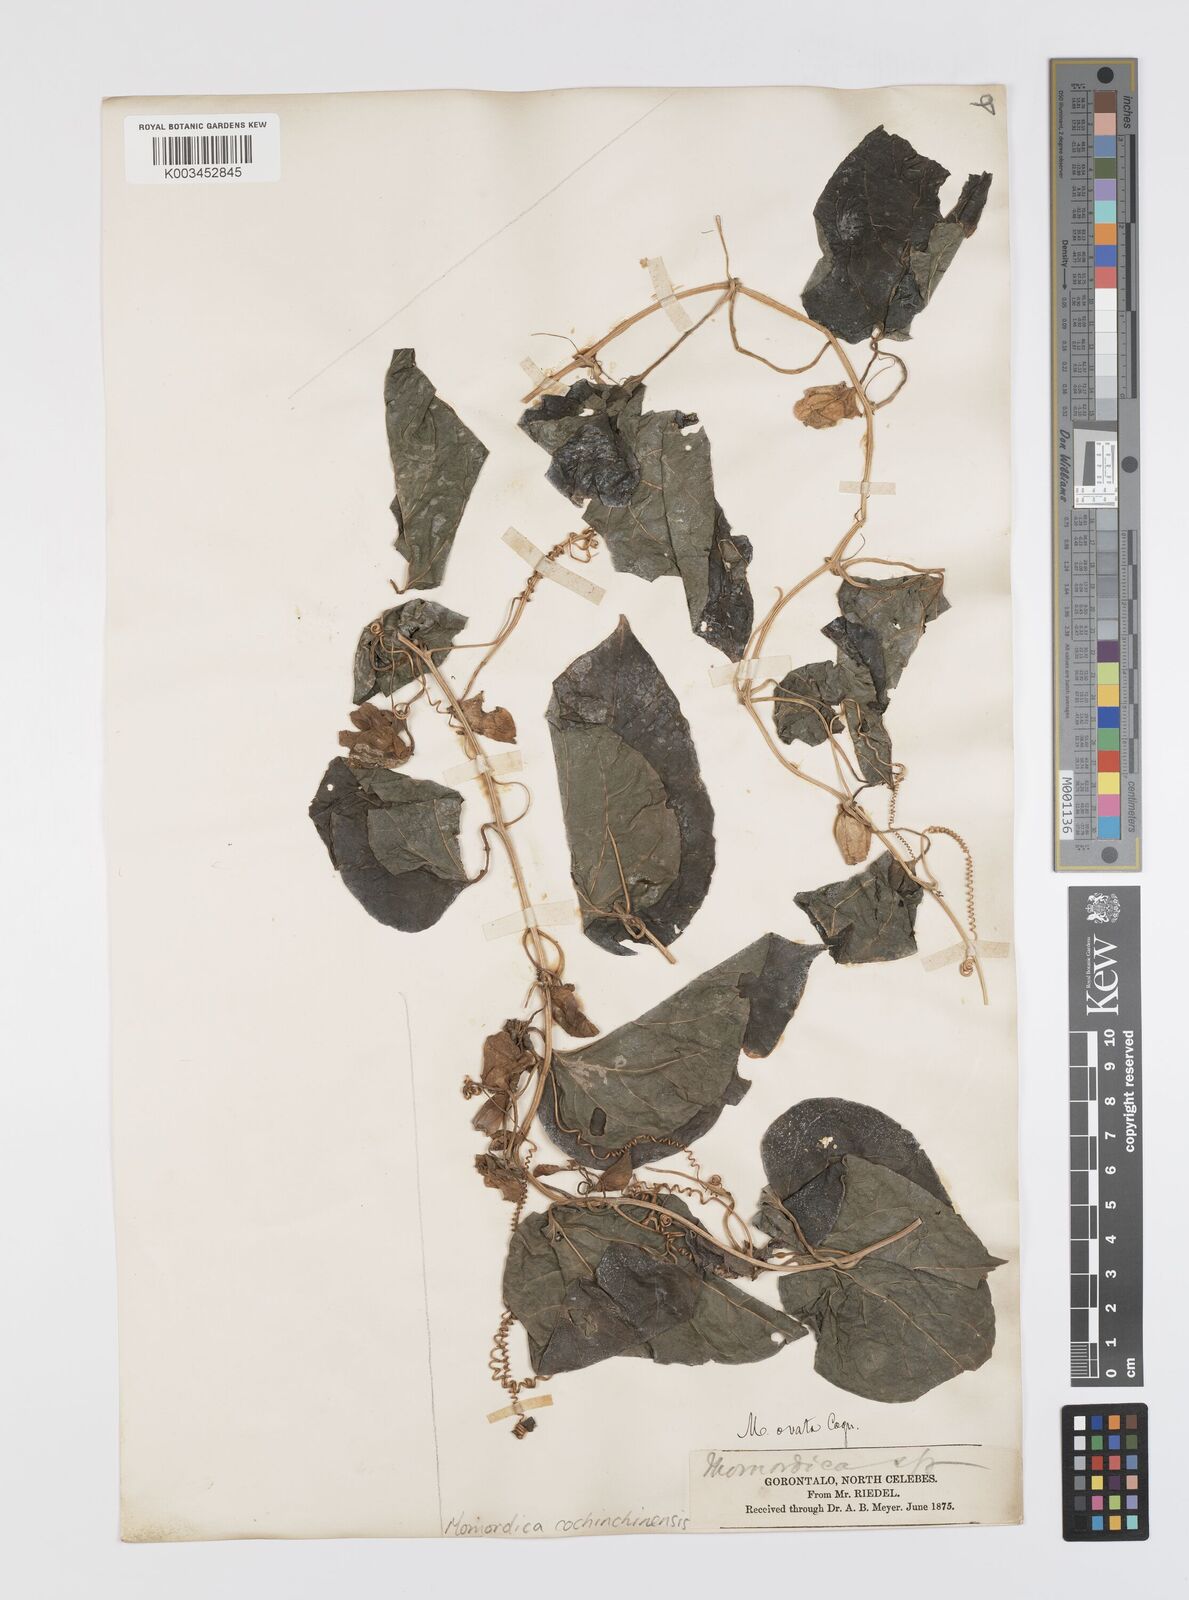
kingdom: Plantae
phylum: Tracheophyta
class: Magnoliopsida
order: Cucurbitales
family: Cucurbitaceae
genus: Momordica
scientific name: Momordica cochinchinensis
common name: Chinese bitter-cucumber
